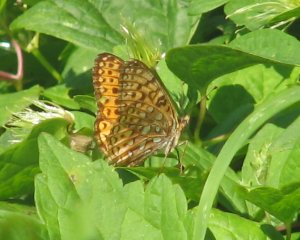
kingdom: Animalia
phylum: Arthropoda
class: Insecta
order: Lepidoptera
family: Nymphalidae
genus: Speyeria
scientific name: Speyeria atlantis
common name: Atlantis Fritillary
